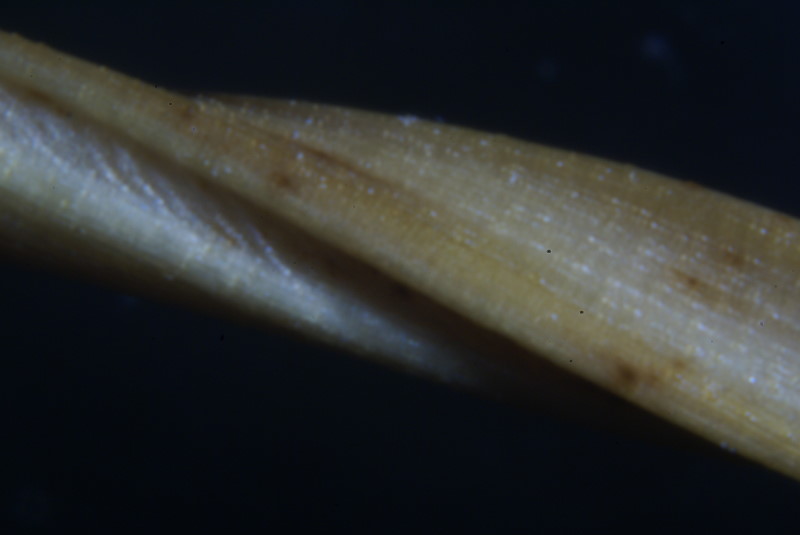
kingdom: Plantae
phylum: Tracheophyta
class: Liliopsida
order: Poales
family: Poaceae
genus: Stipa
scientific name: Stipa
